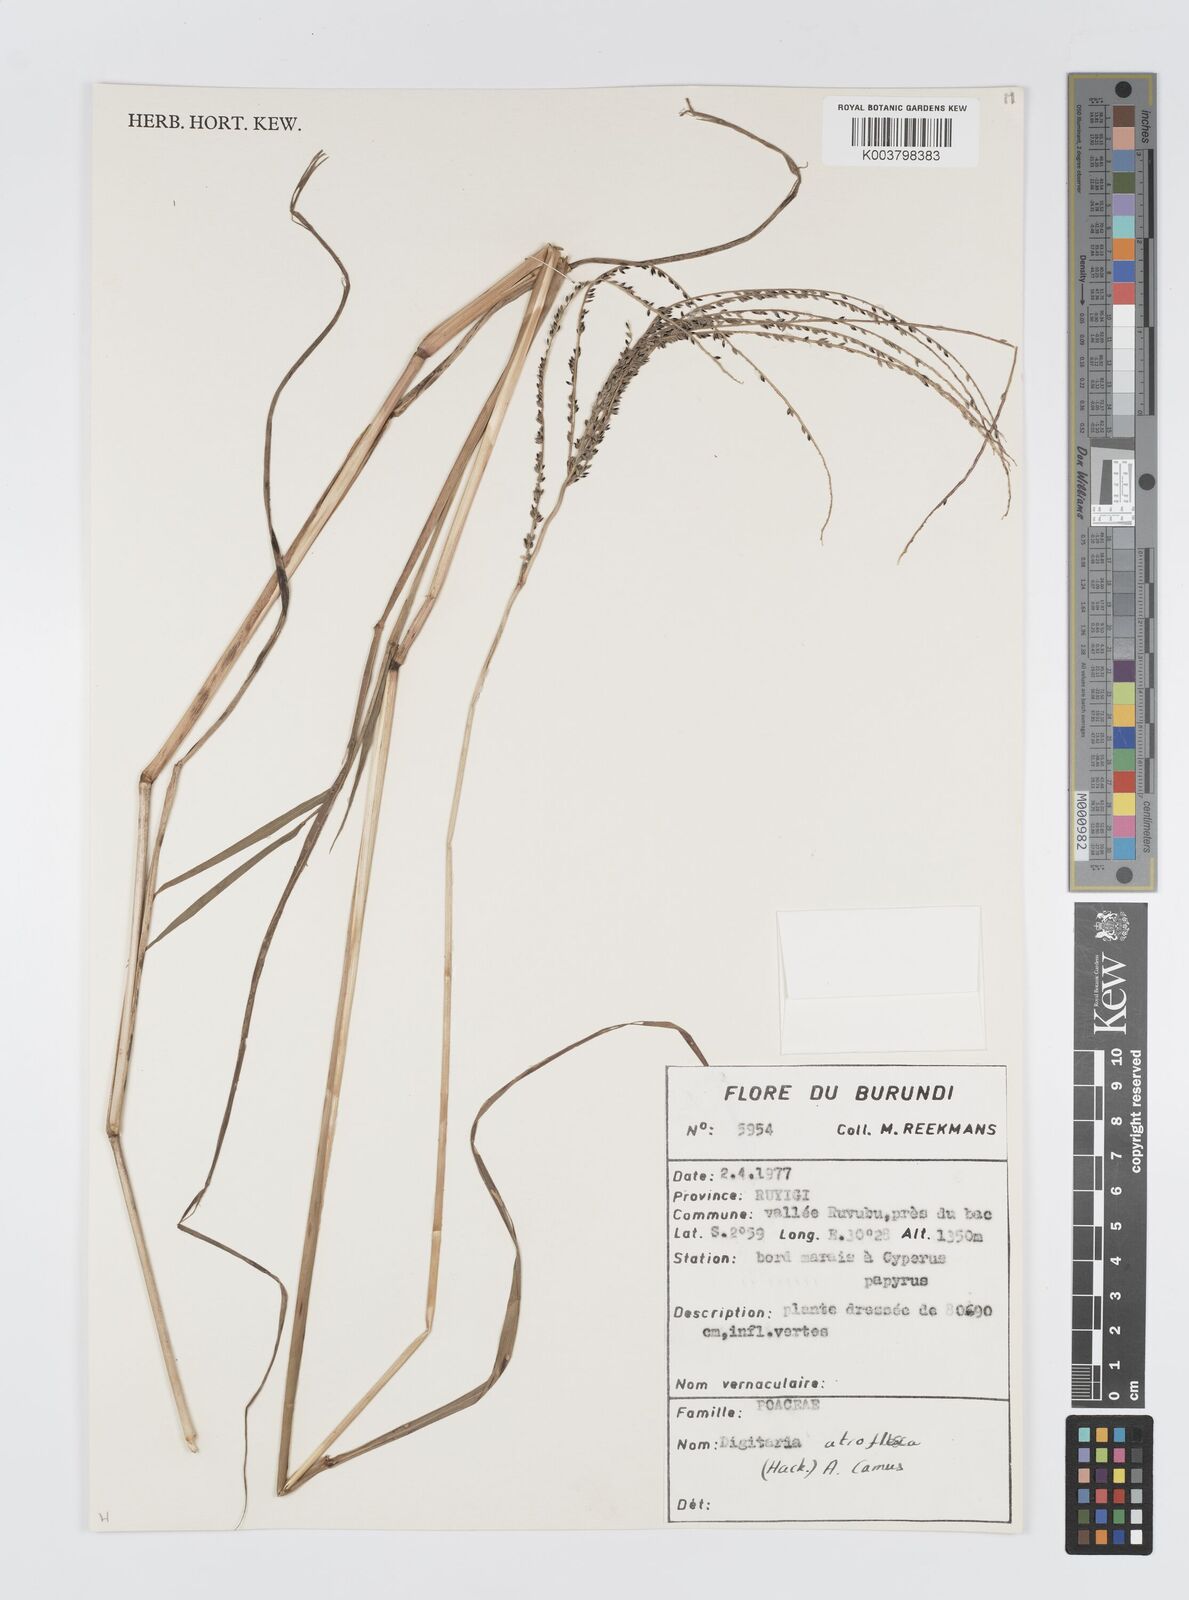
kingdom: Plantae
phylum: Tracheophyta
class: Liliopsida
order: Poales
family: Poaceae
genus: Digitaria
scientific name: Digitaria atrofusca
